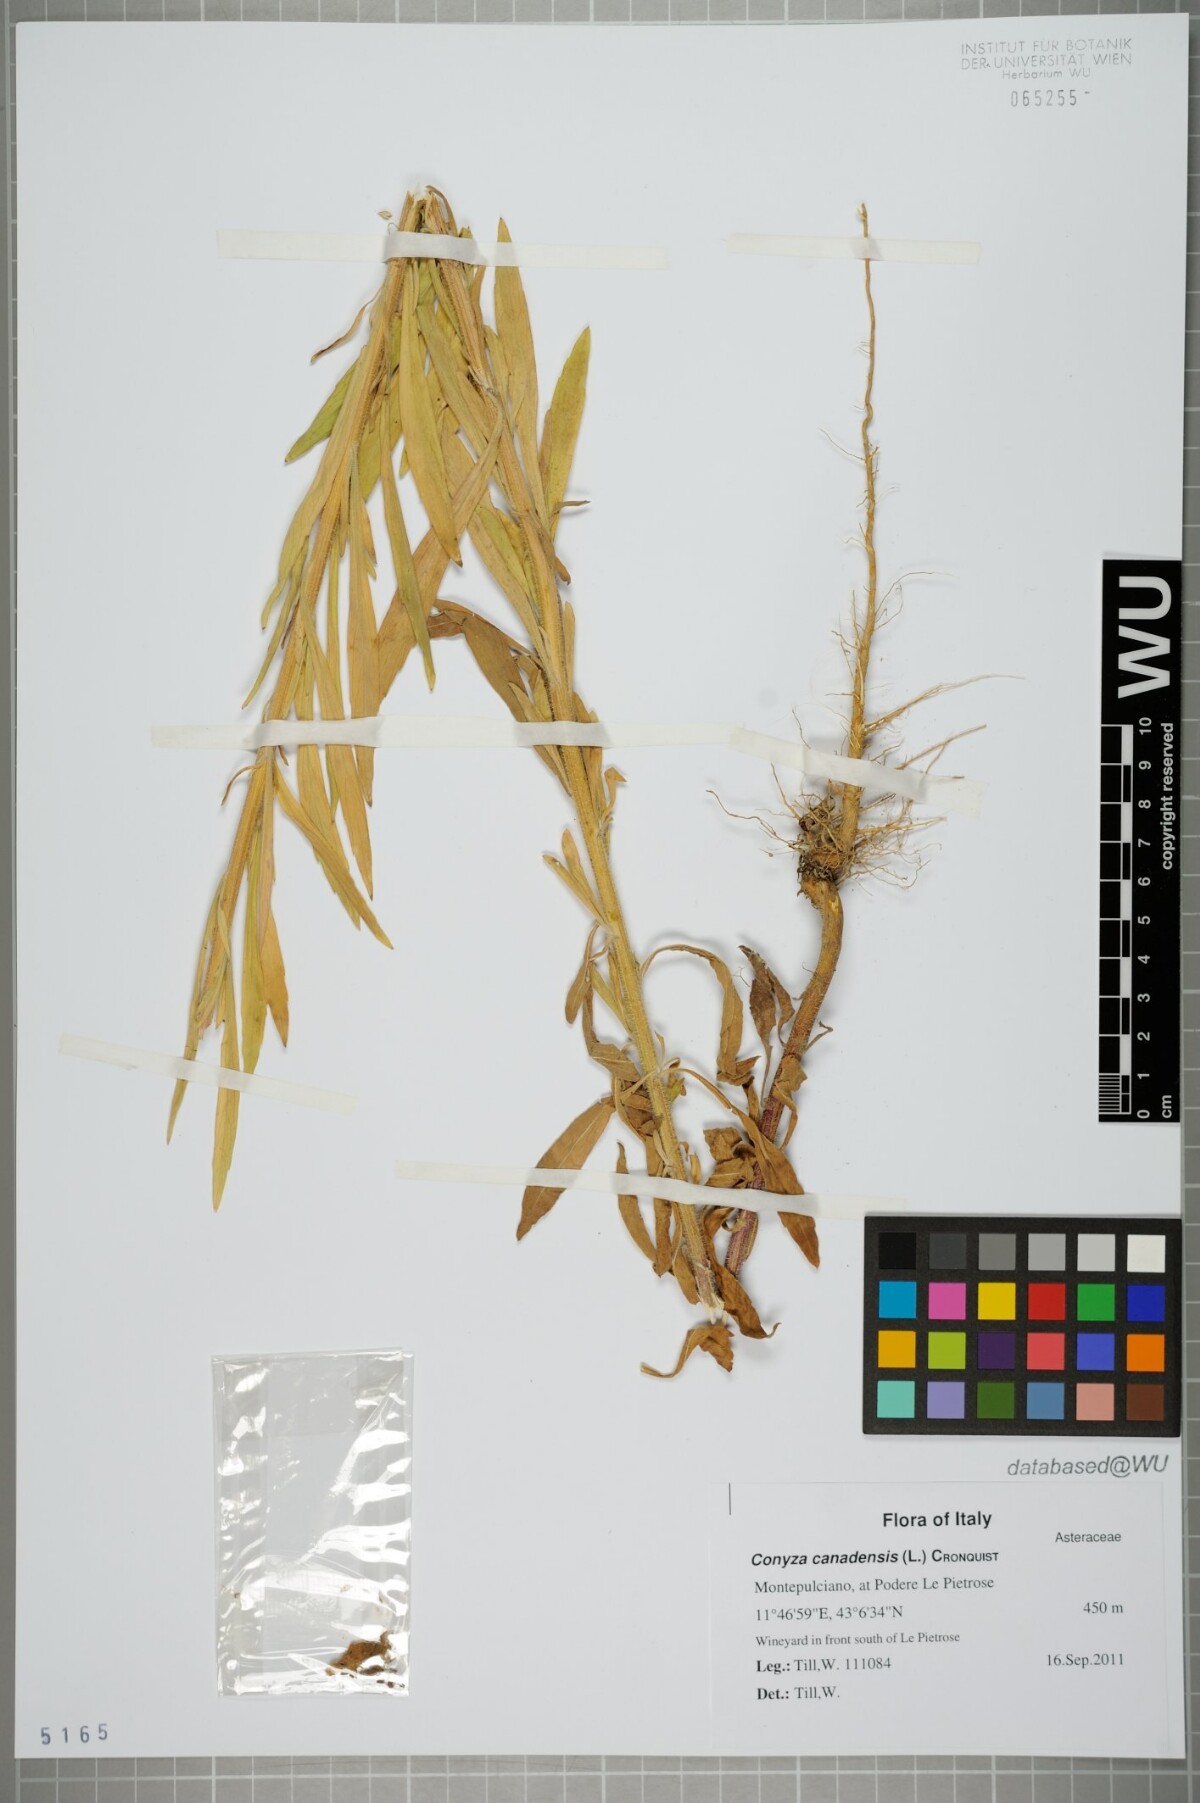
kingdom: Plantae
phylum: Tracheophyta
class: Magnoliopsida
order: Asterales
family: Asteraceae
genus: Erigeron
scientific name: Erigeron canadensis
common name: Canadian fleabane
